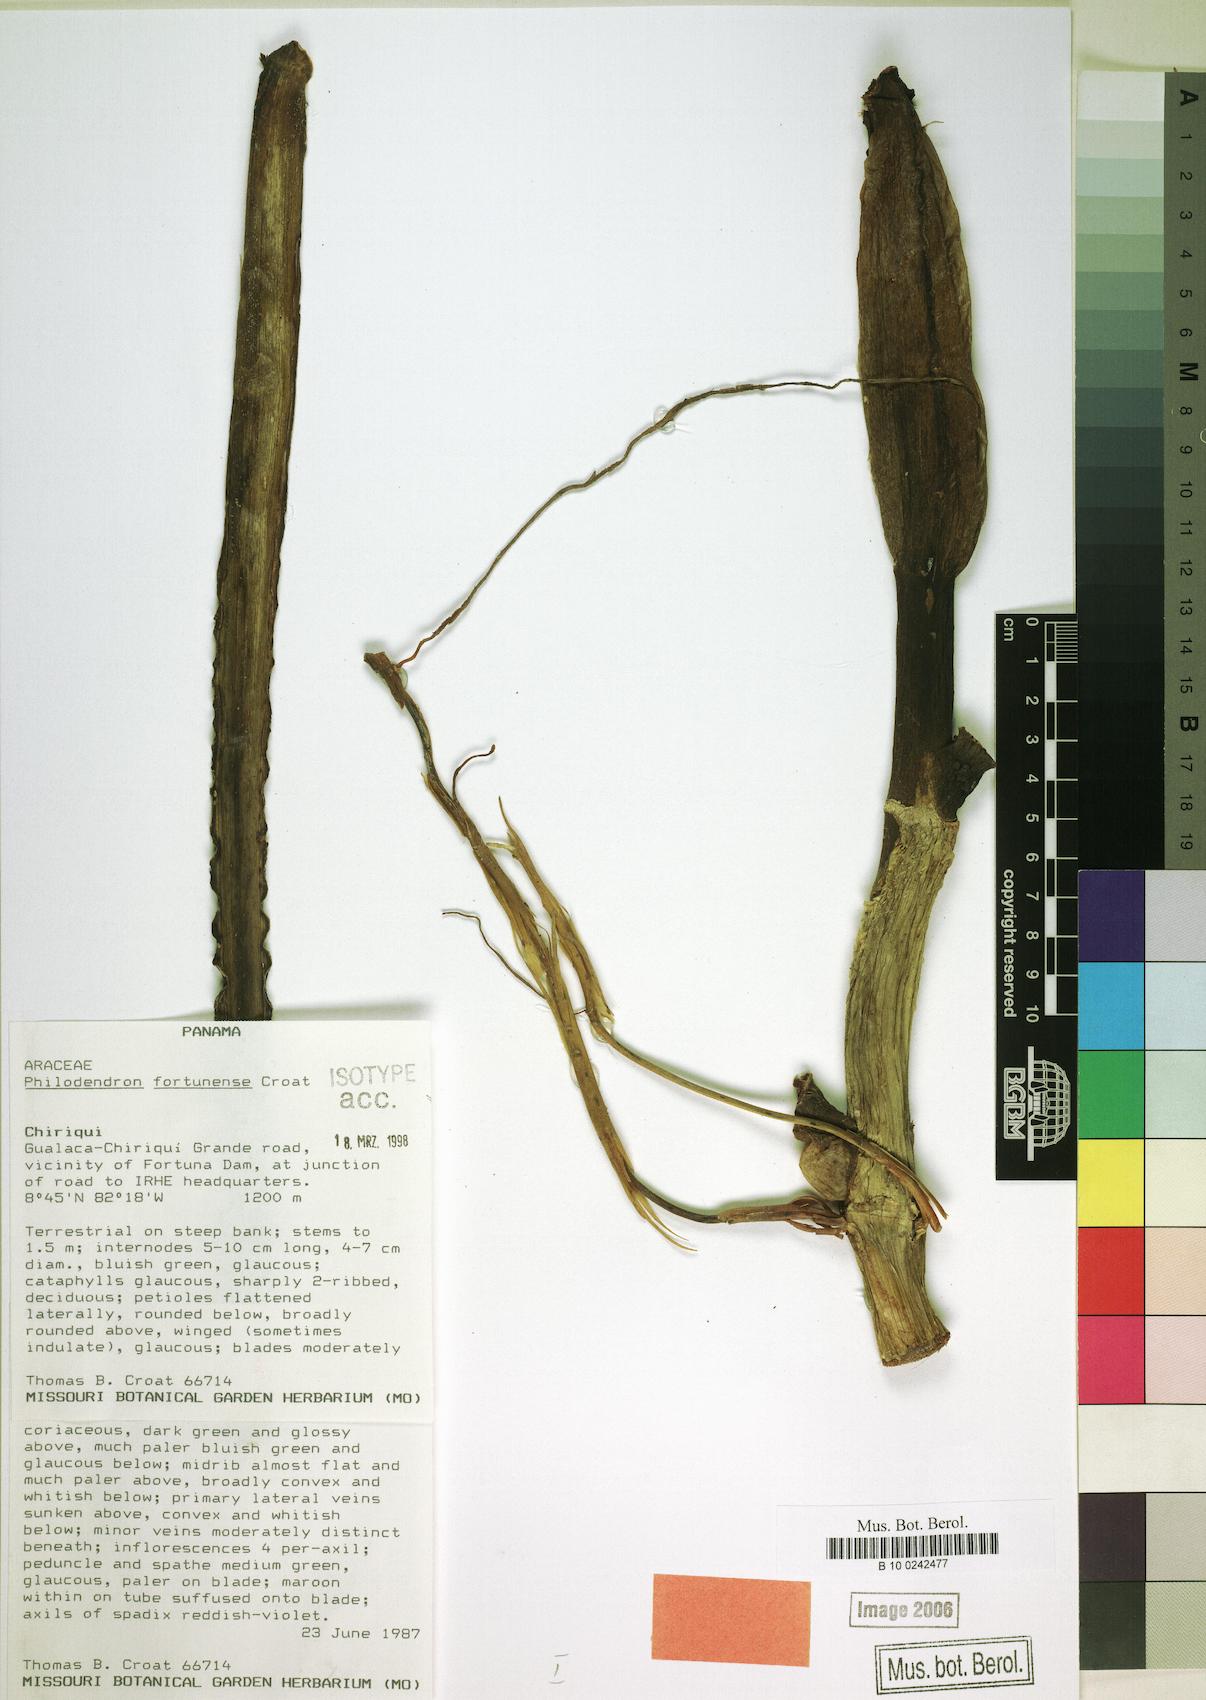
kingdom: Plantae
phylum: Tracheophyta
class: Liliopsida
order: Alismatales
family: Araceae
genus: Philodendron
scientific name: Philodendron fortunense
